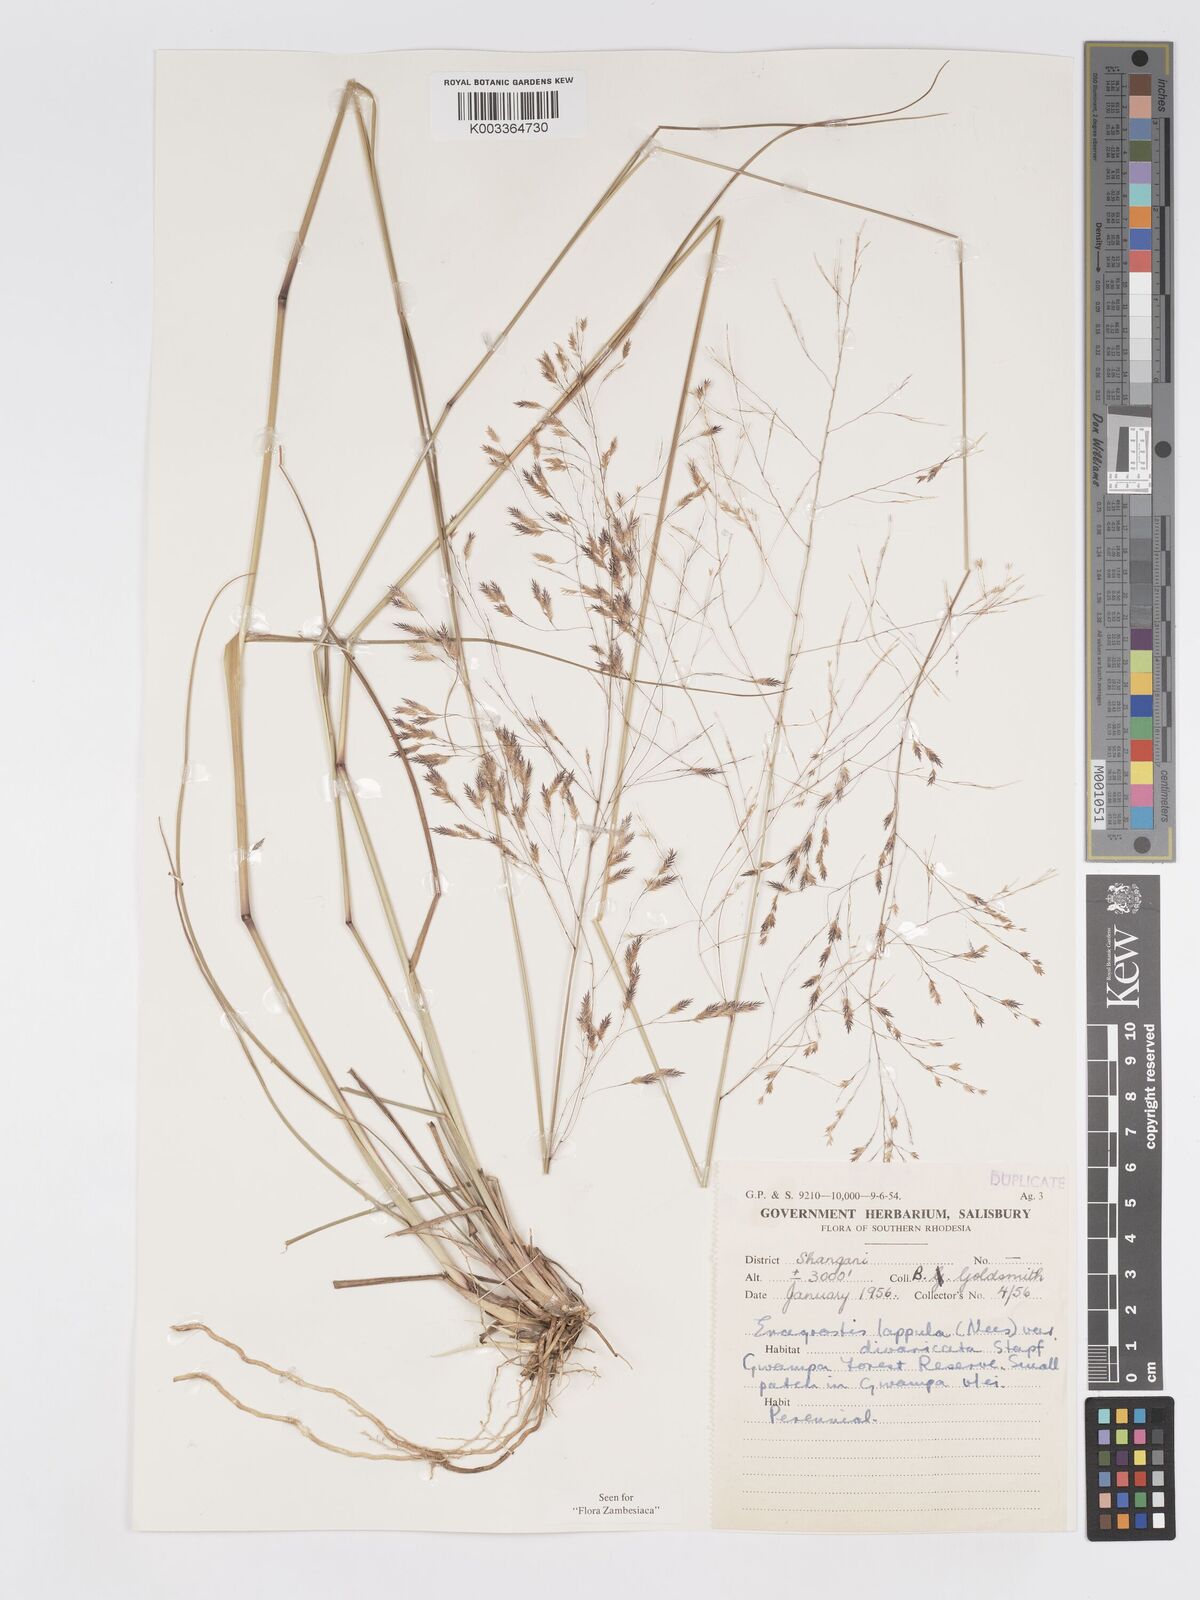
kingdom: Plantae
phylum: Tracheophyta
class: Liliopsida
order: Poales
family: Poaceae
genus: Eragrostis
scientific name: Eragrostis lappula
